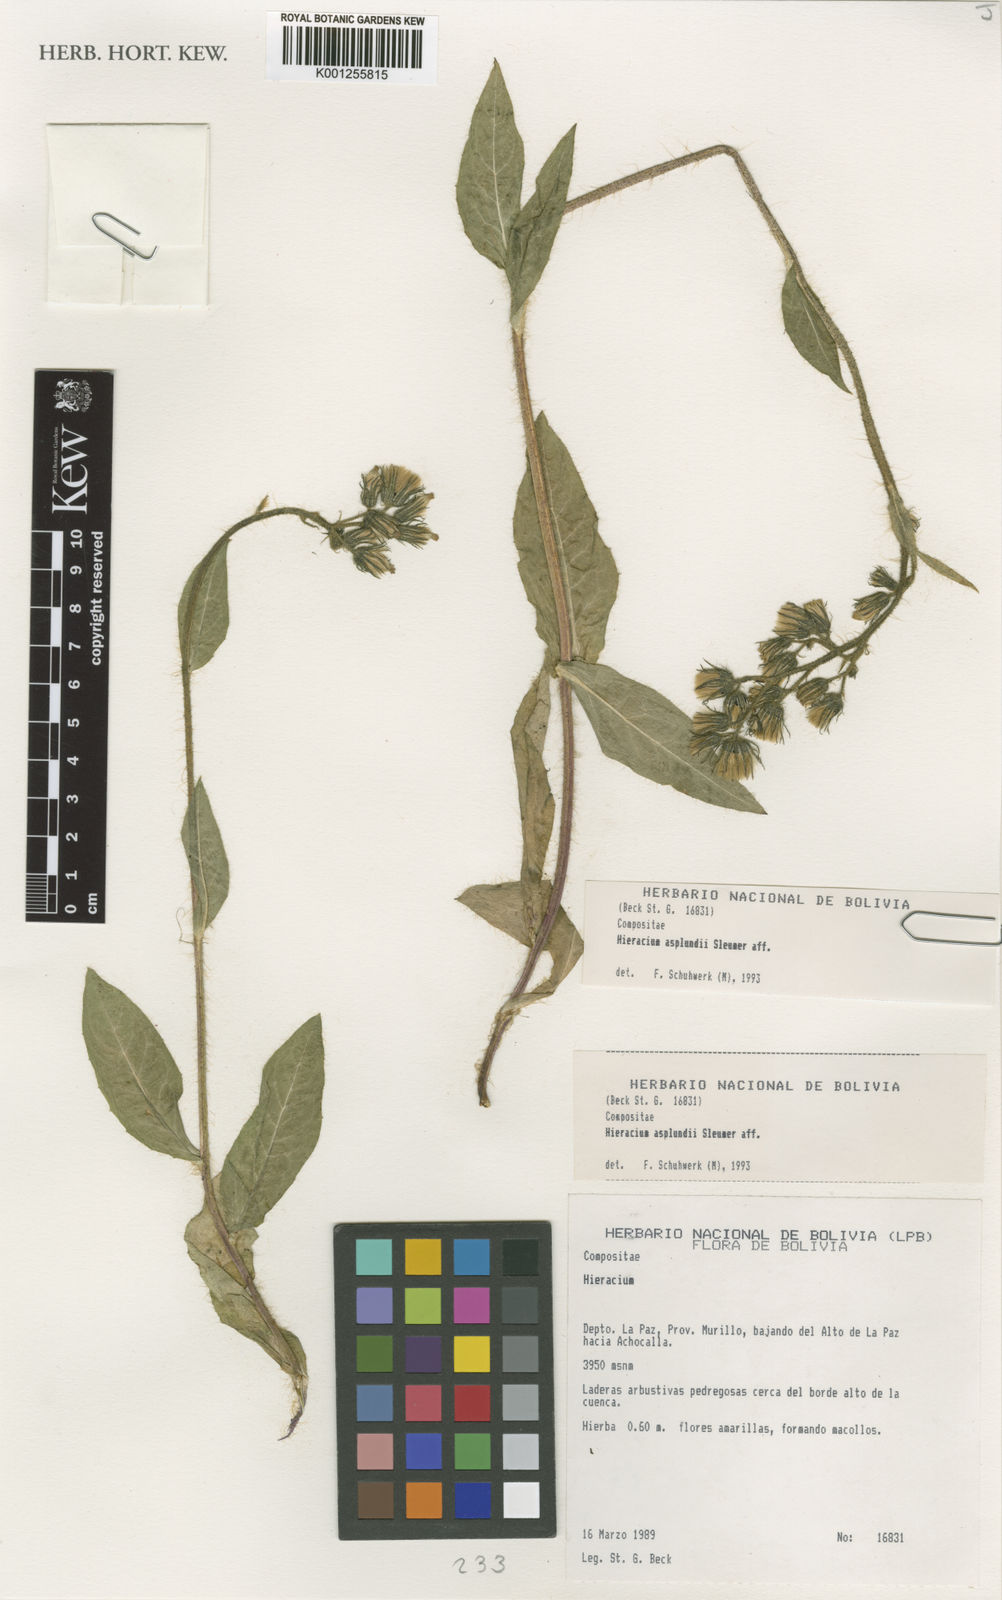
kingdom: Plantae
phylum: Tracheophyta
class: Magnoliopsida
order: Asterales
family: Asteraceae
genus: Hieracium
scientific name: Hieracium asplundii
